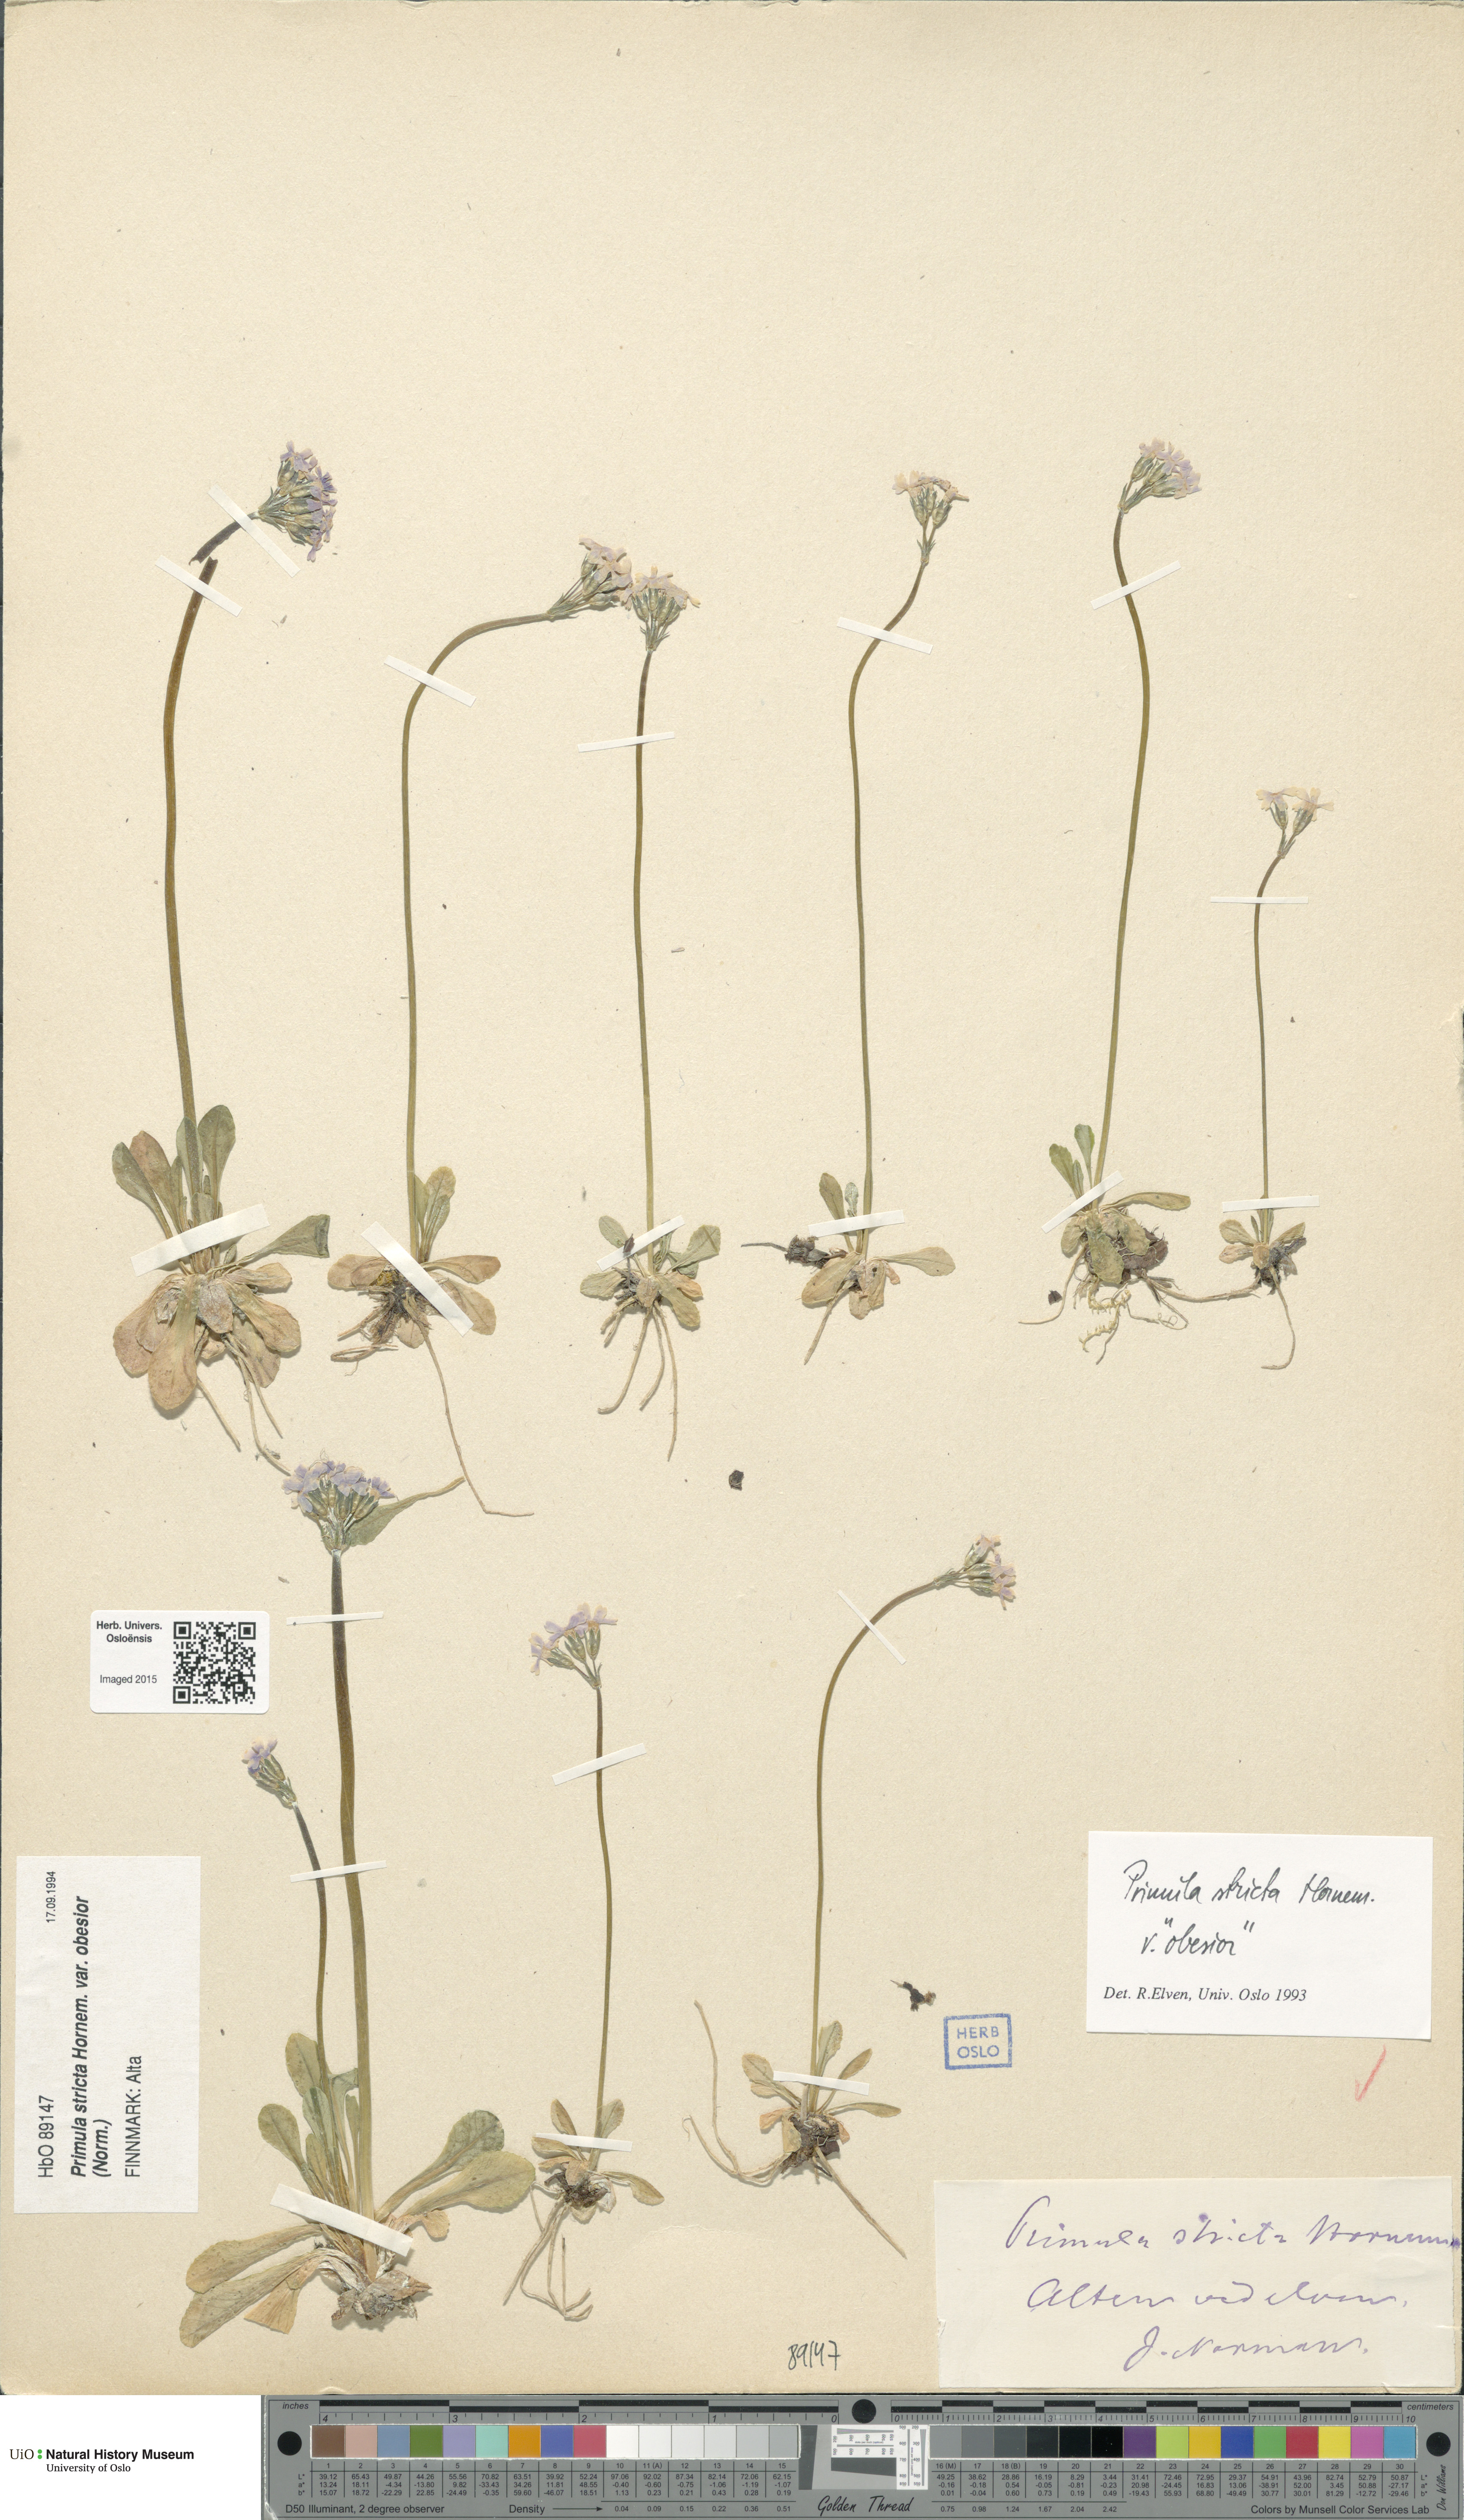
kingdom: Plantae
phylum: Tracheophyta
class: Magnoliopsida
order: Ericales
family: Primulaceae
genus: Primula
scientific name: Primula stricta
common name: Coastal primrose
